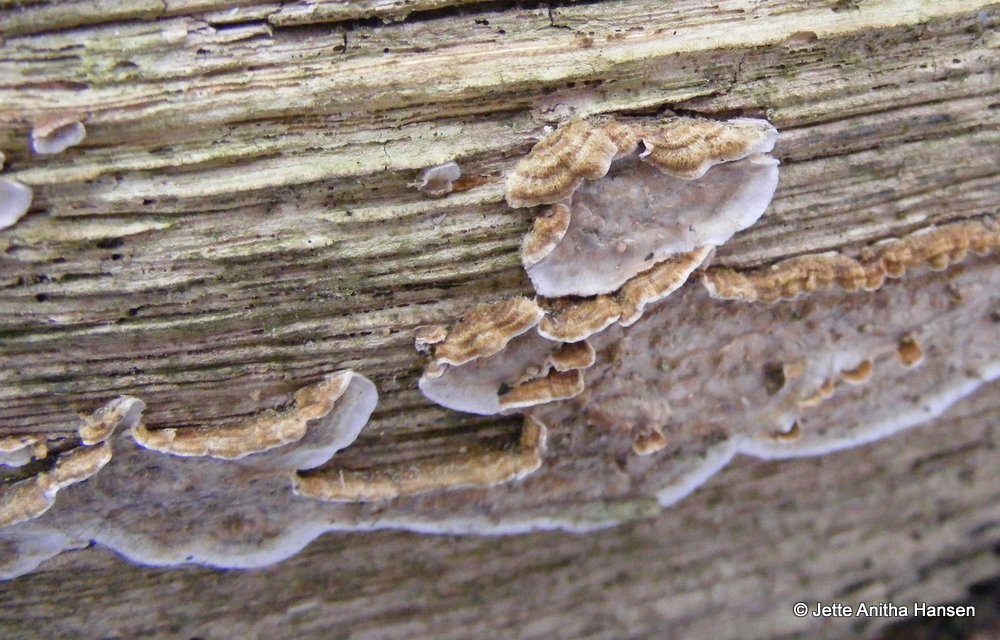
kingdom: Fungi
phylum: Basidiomycota
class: Agaricomycetes
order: Russulales
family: Stereaceae
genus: Stereum
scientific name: Stereum gausapatum
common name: tynd lædersvamp
